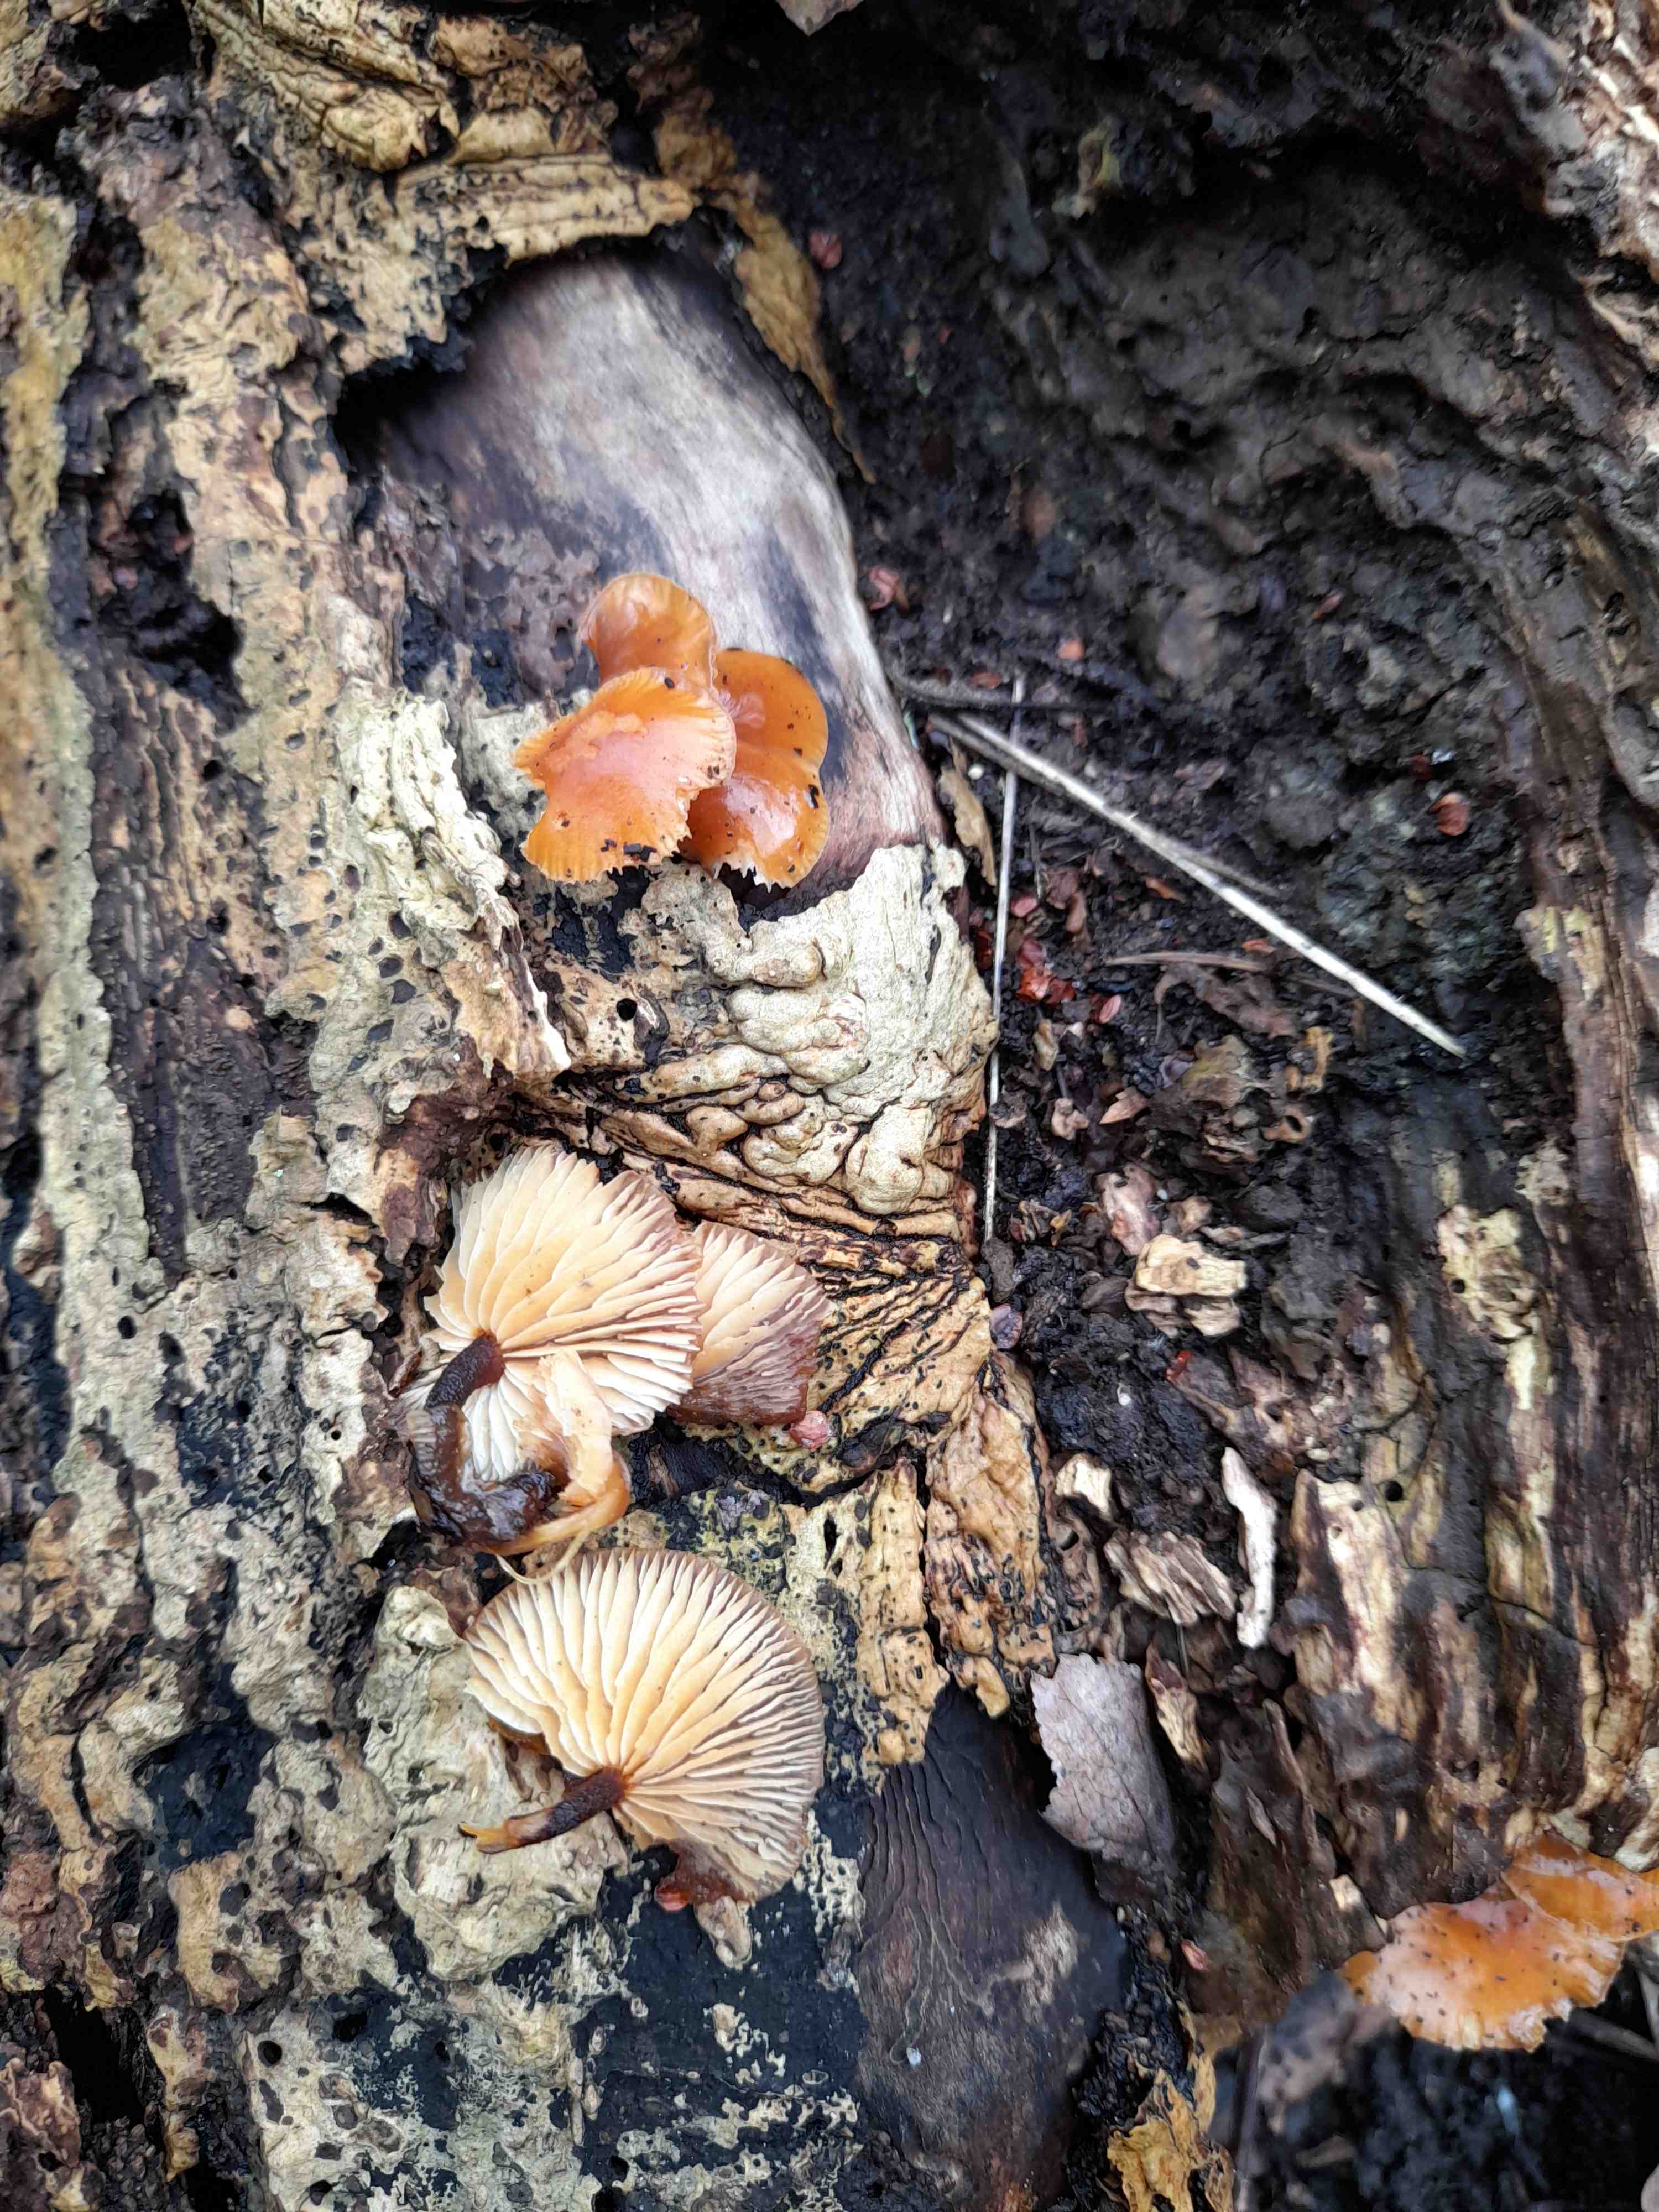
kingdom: Fungi
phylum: Basidiomycota
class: Agaricomycetes
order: Agaricales
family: Physalacriaceae
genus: Flammulina
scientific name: Flammulina velutipes
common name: gul fløjlsfod
